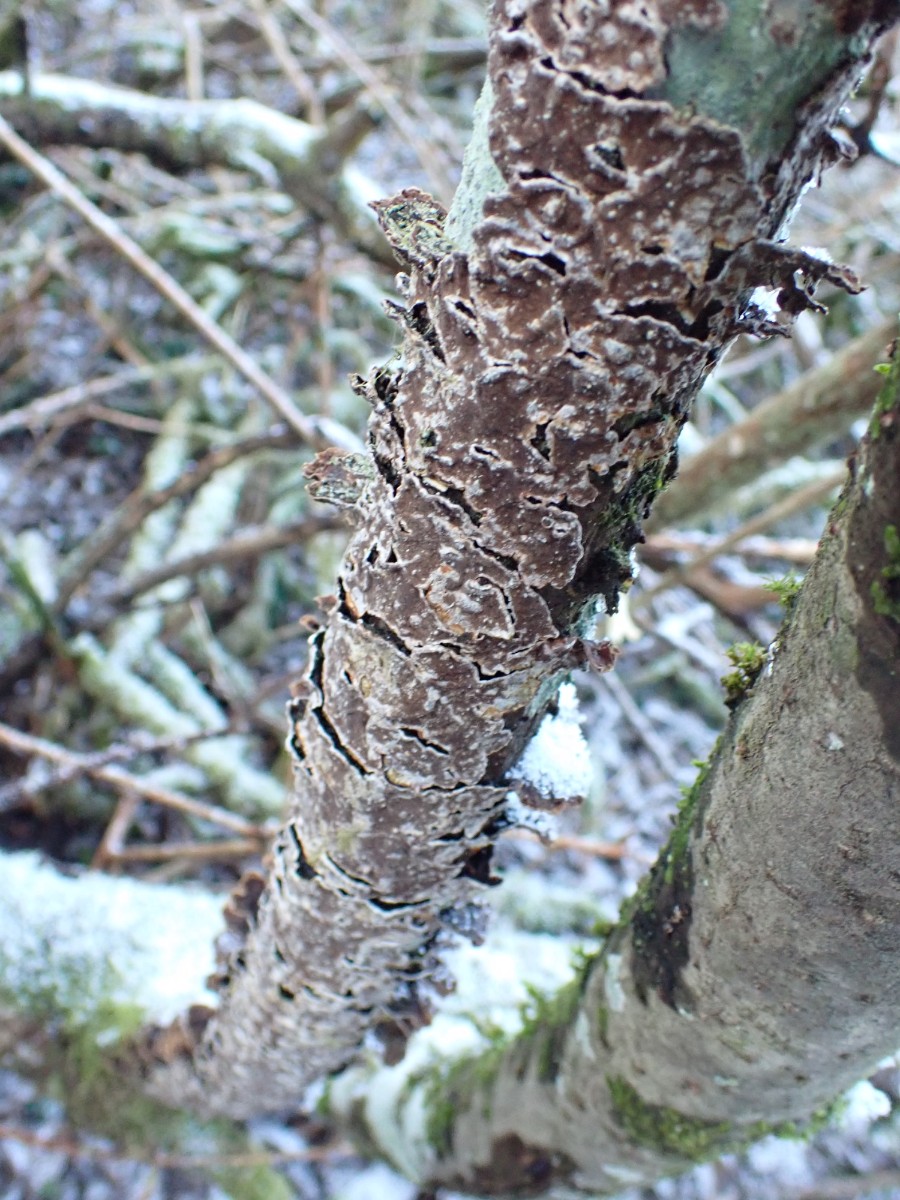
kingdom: Fungi
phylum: Basidiomycota
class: Agaricomycetes
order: Hymenochaetales
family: Hymenochaetaceae
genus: Hydnoporia
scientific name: Hydnoporia tabacina
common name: tobaksbrun ruslædersvamp
